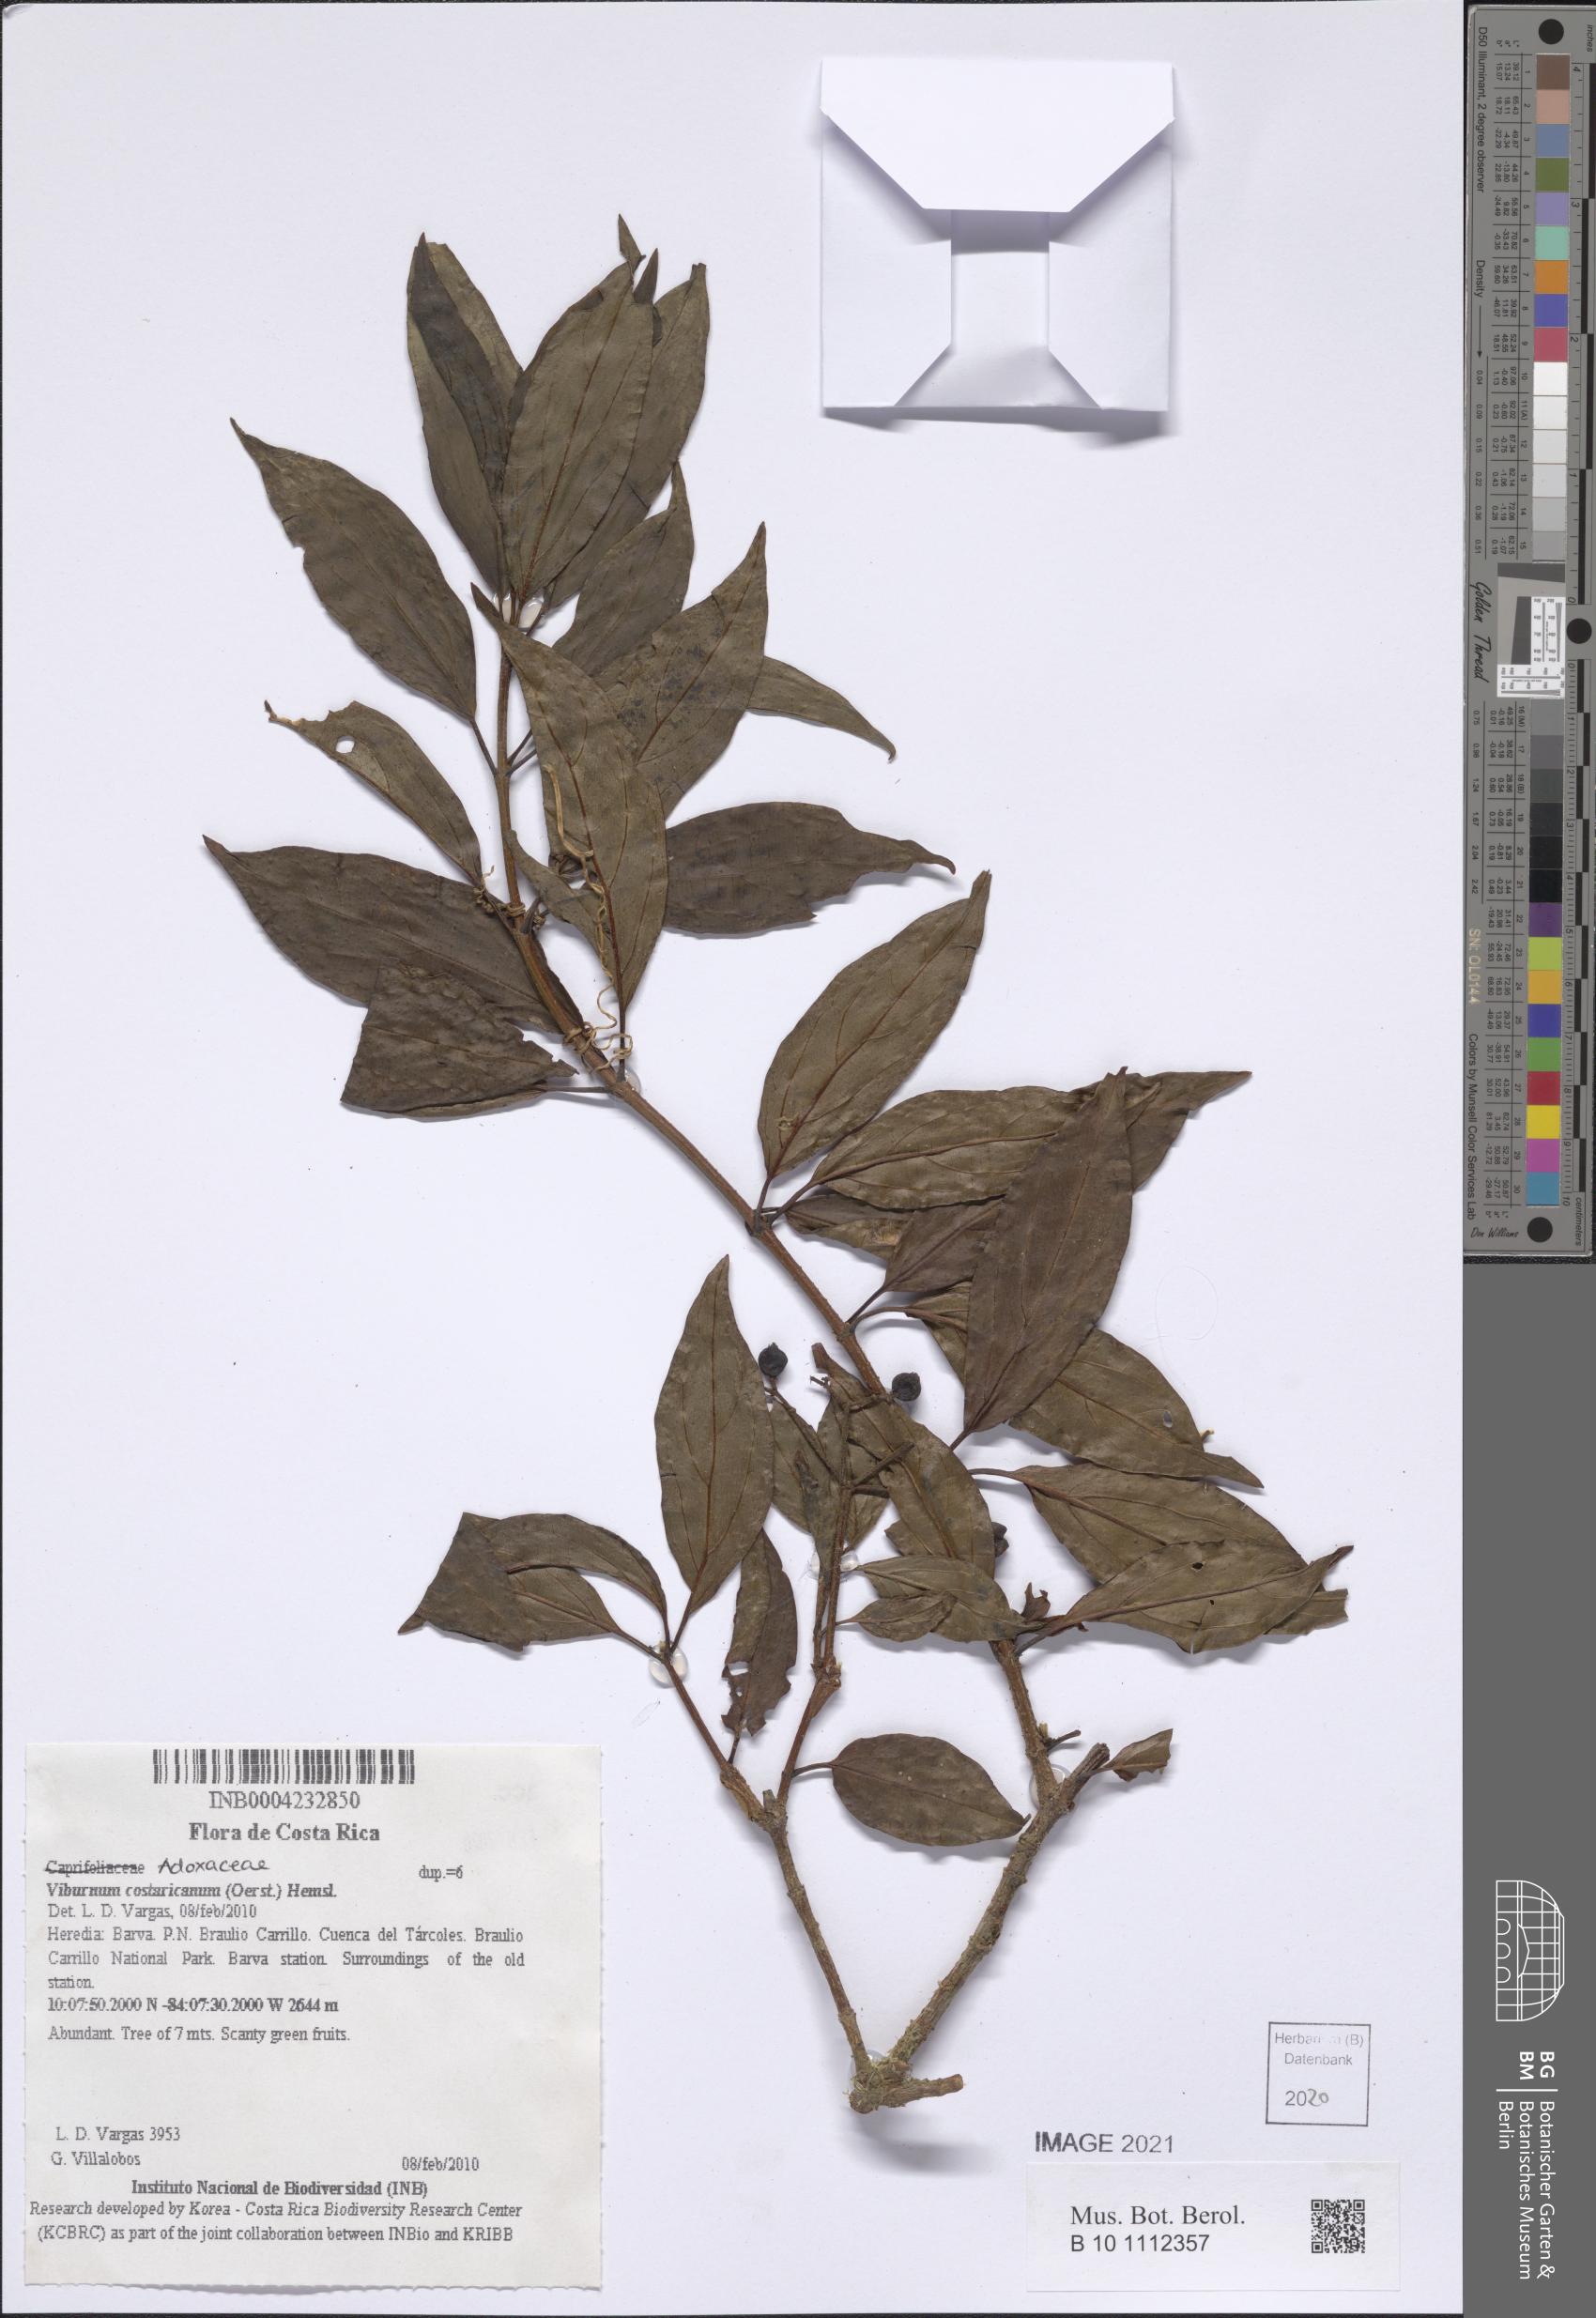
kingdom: Plantae
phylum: Tracheophyta
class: Magnoliopsida
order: Dipsacales
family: Viburnaceae
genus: Viburnum
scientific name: Viburnum costaricanum
